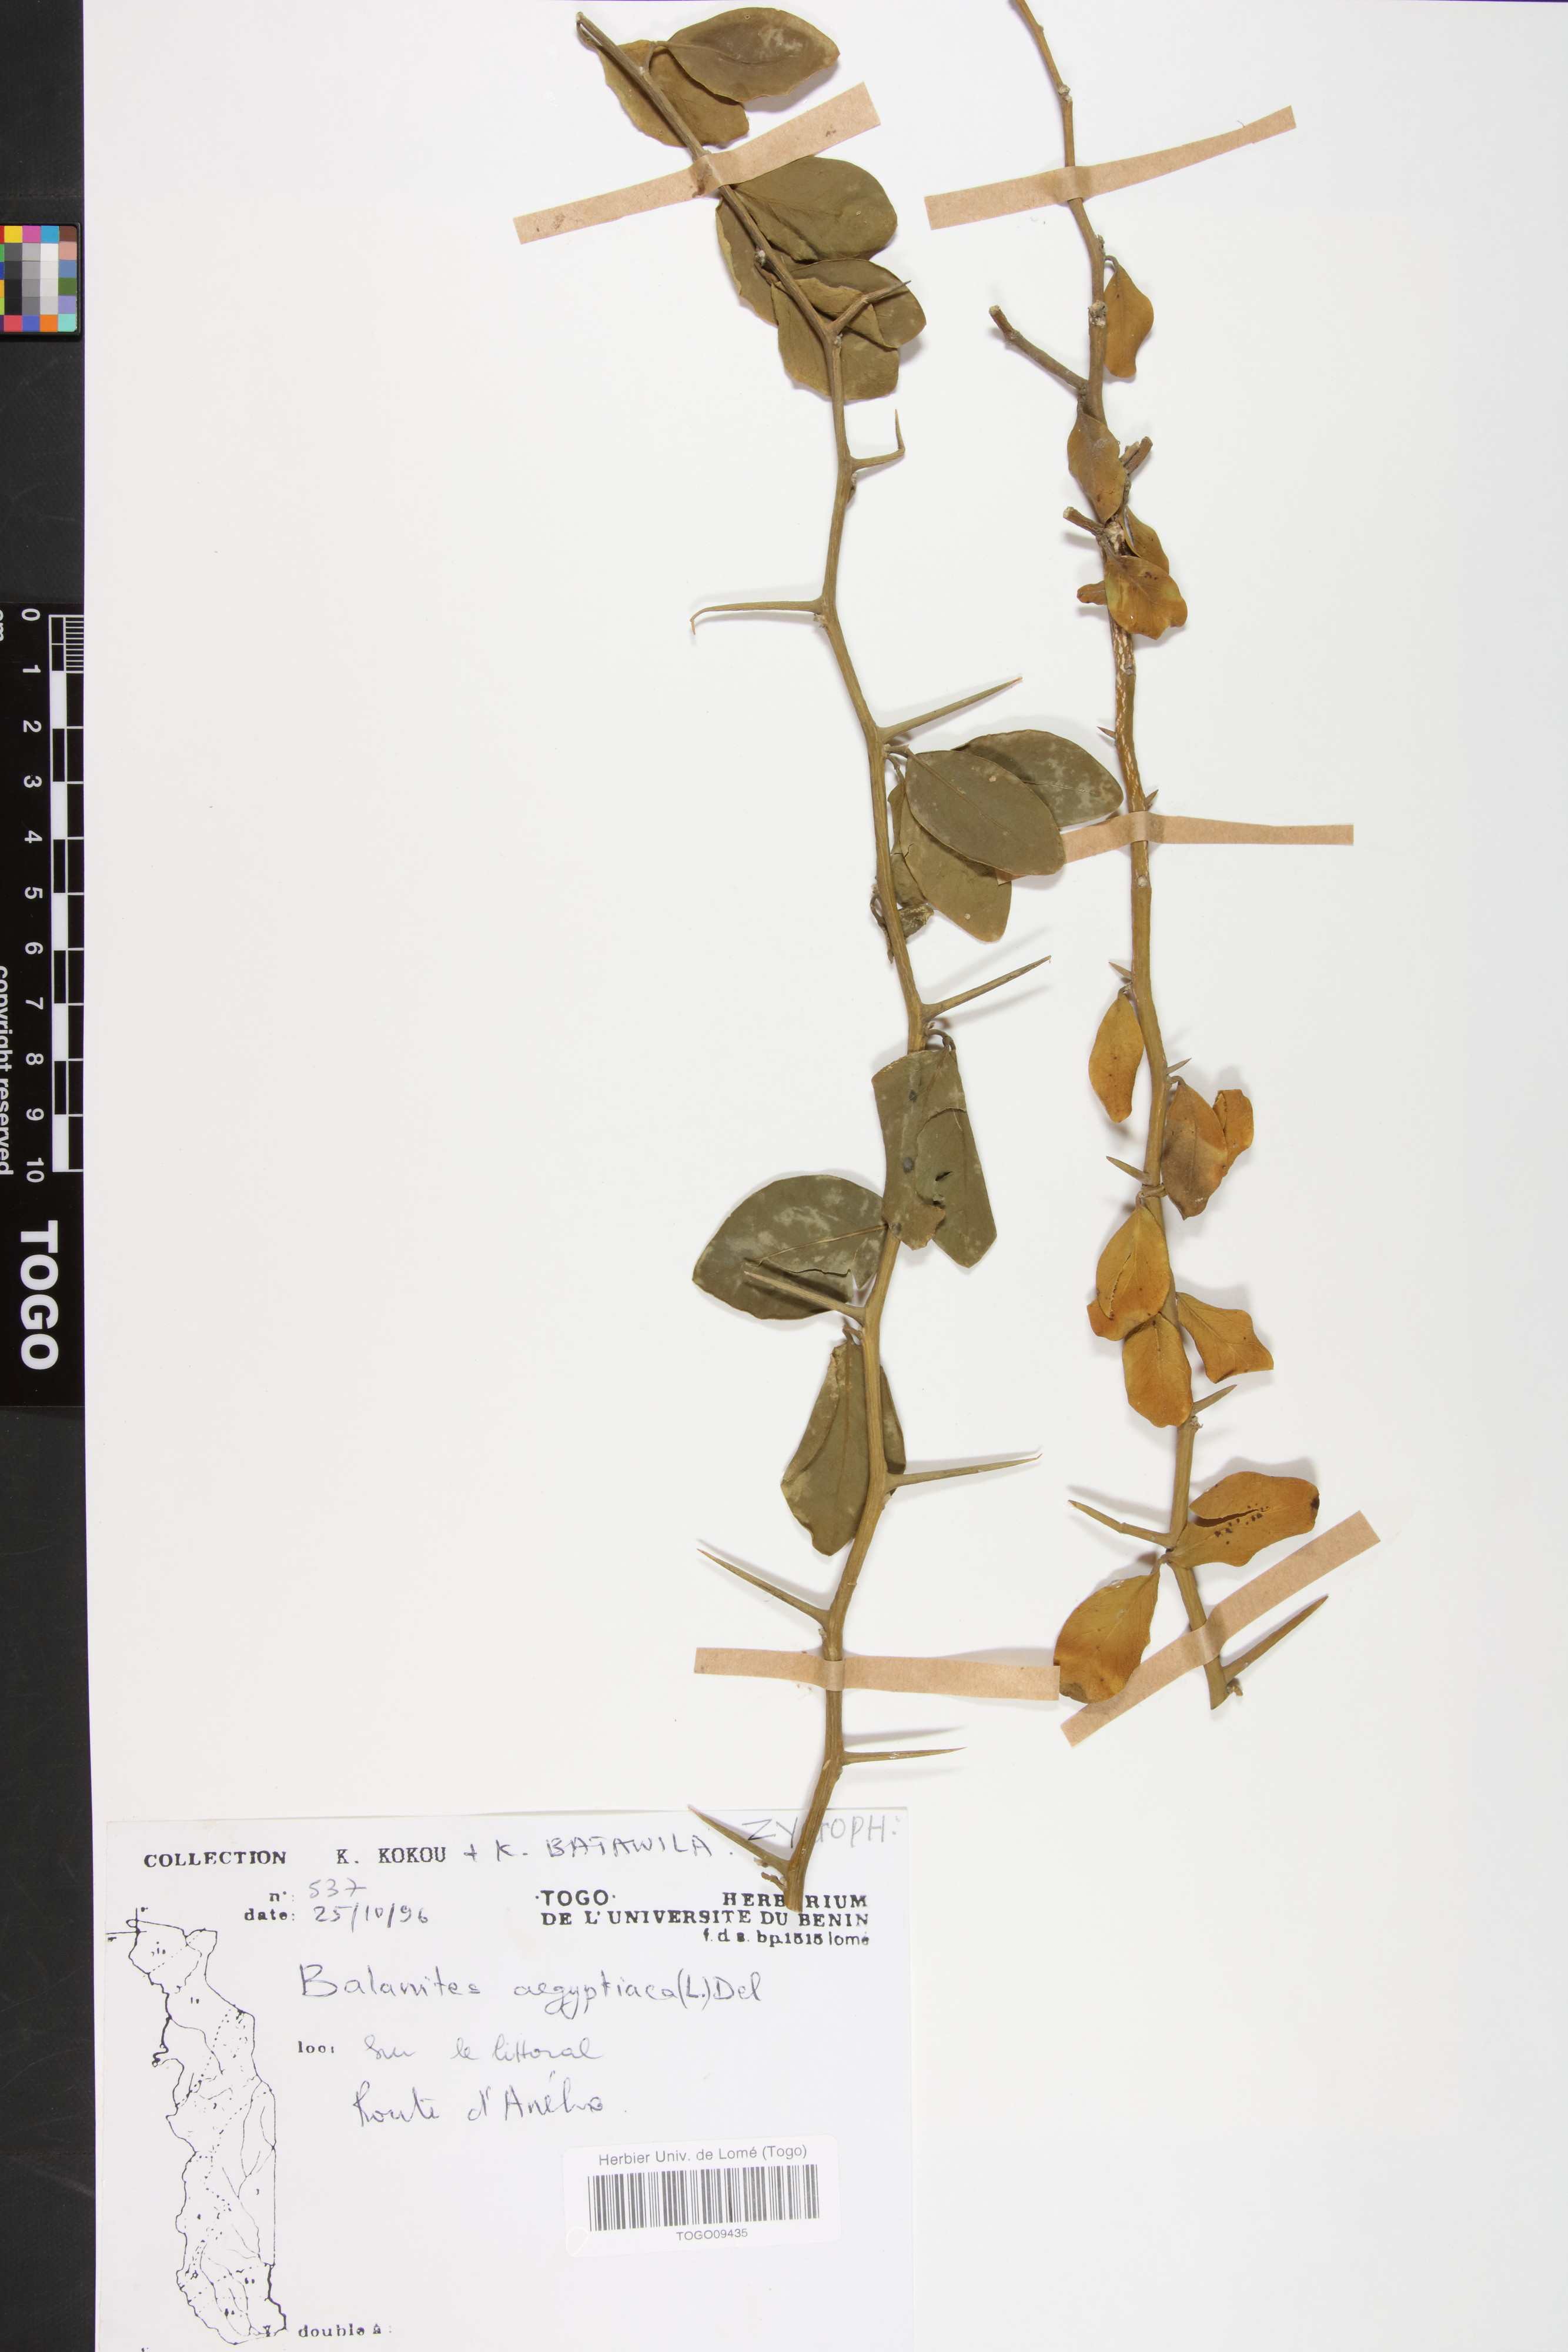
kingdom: Plantae
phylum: Tracheophyta
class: Magnoliopsida
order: Zygophyllales
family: Zygophyllaceae
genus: Balanites
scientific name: Balanites aegyptiaca
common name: Balanites
